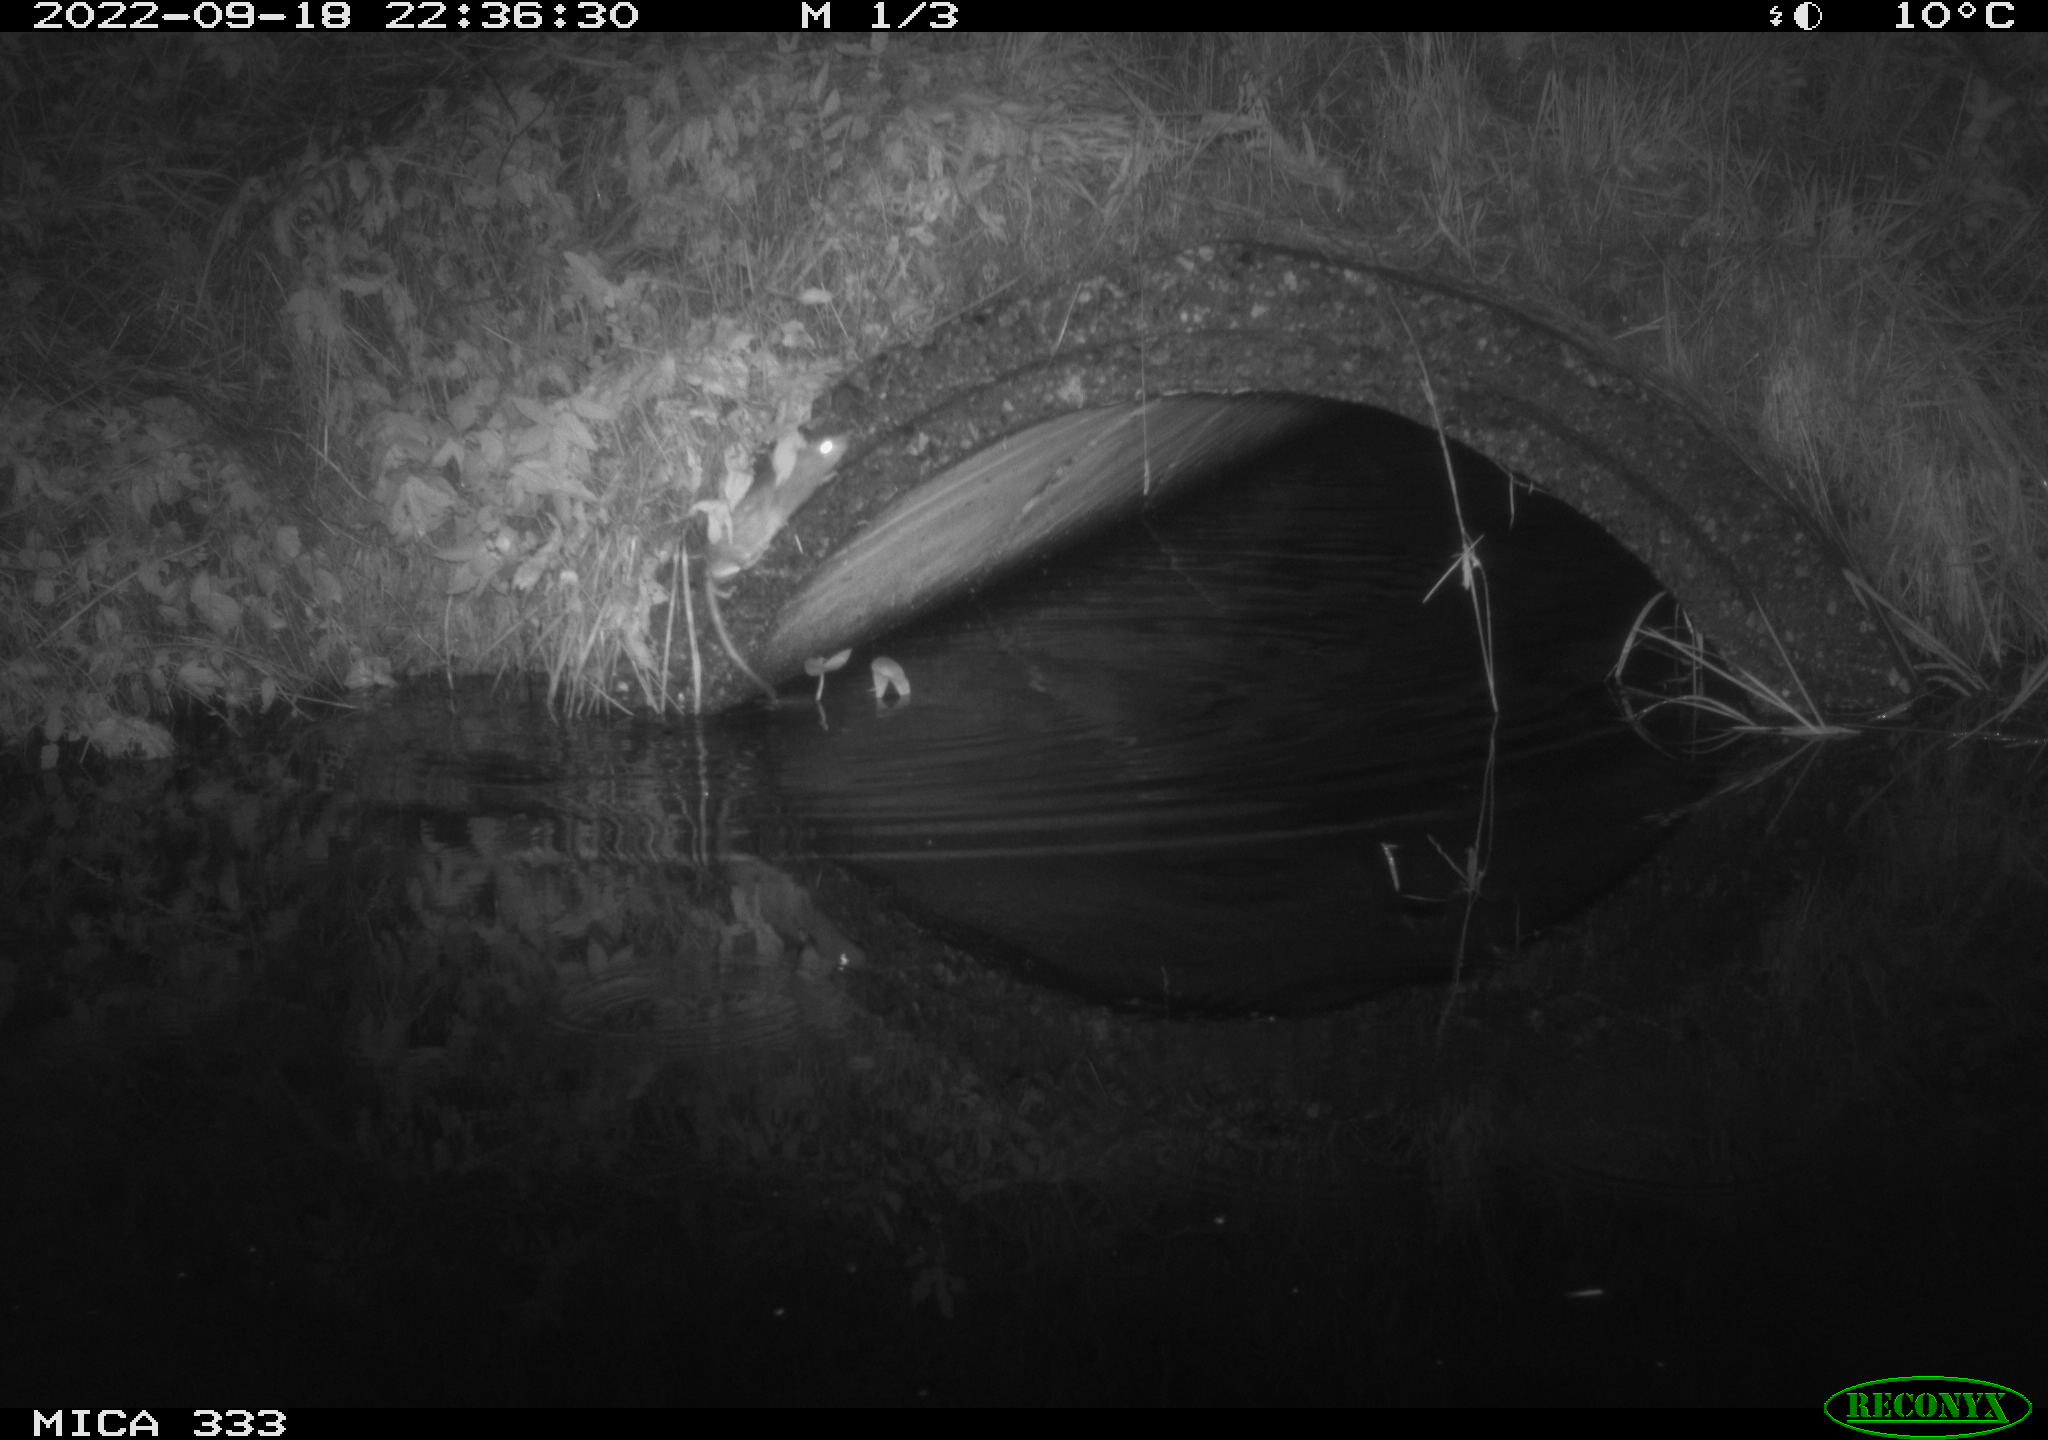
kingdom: Animalia
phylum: Chordata
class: Mammalia
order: Rodentia
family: Muridae
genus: Rattus
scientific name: Rattus norvegicus
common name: Brown rat
